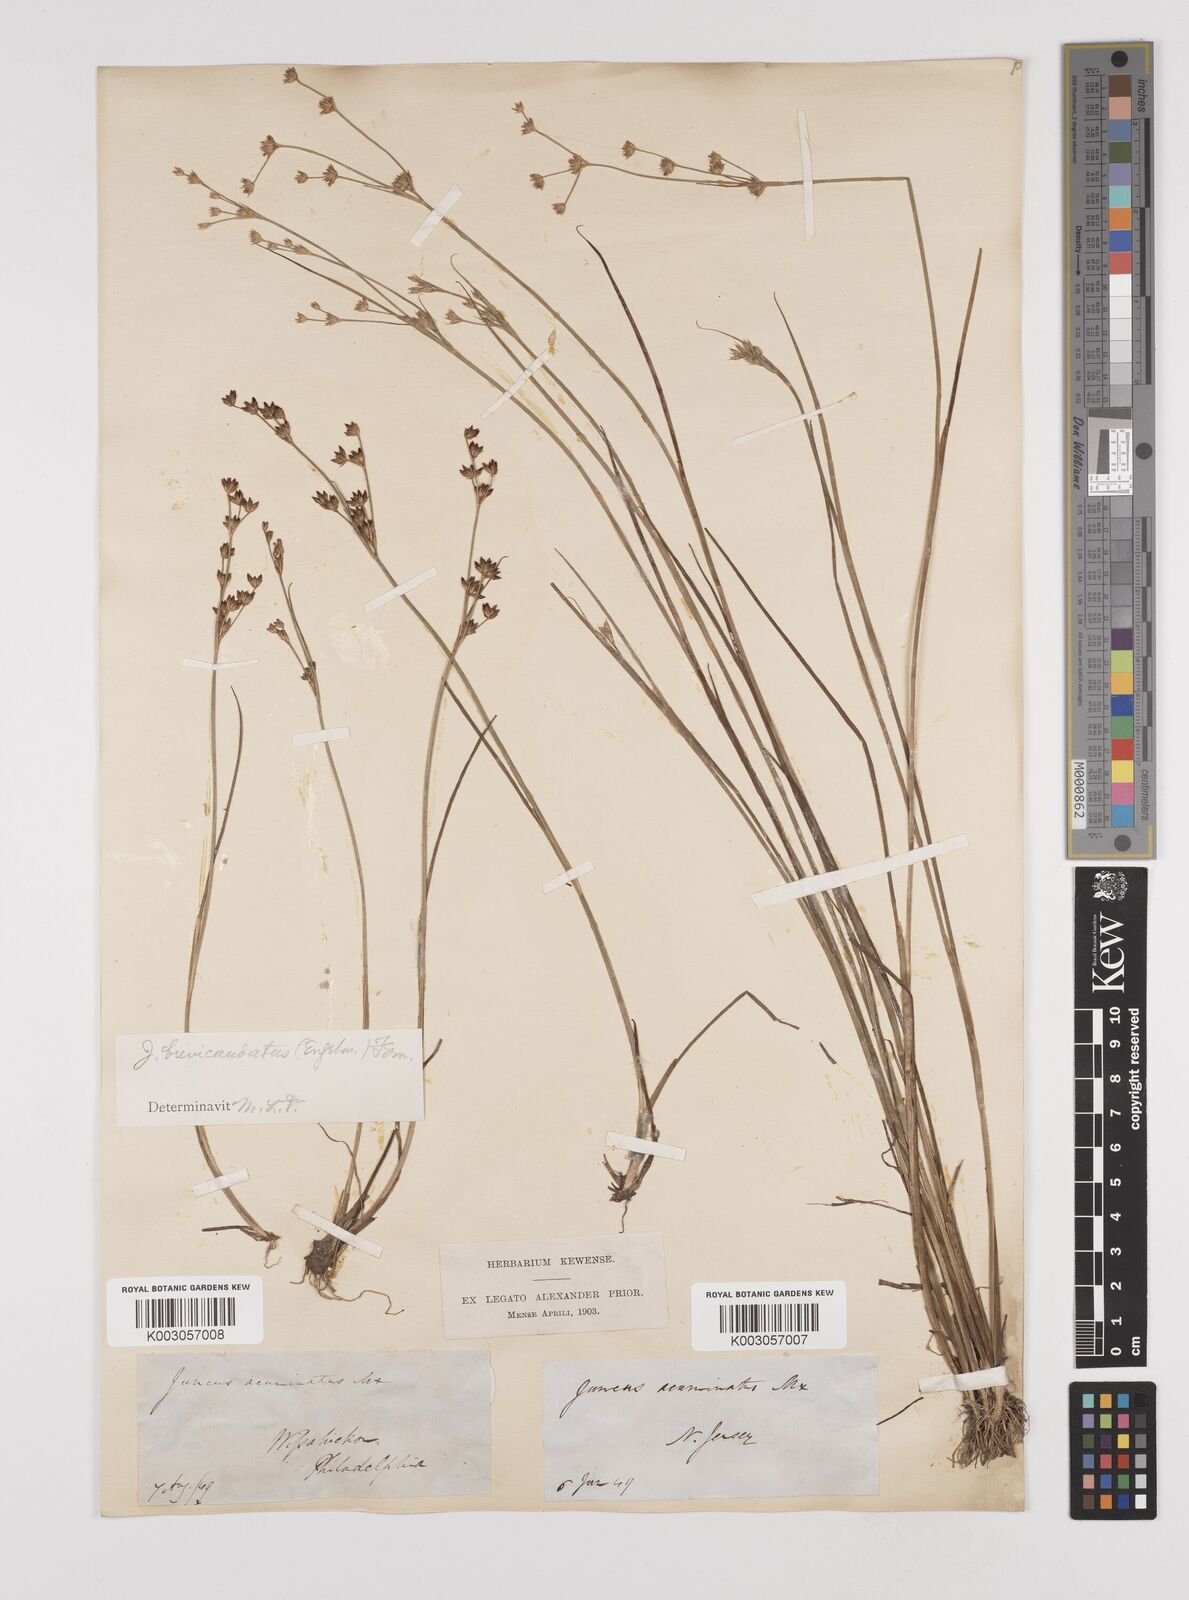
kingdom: Plantae
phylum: Tracheophyta
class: Liliopsida
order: Poales
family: Juncaceae
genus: Juncus
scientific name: Juncus brevicaudatus
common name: Narrow-panicle rush
